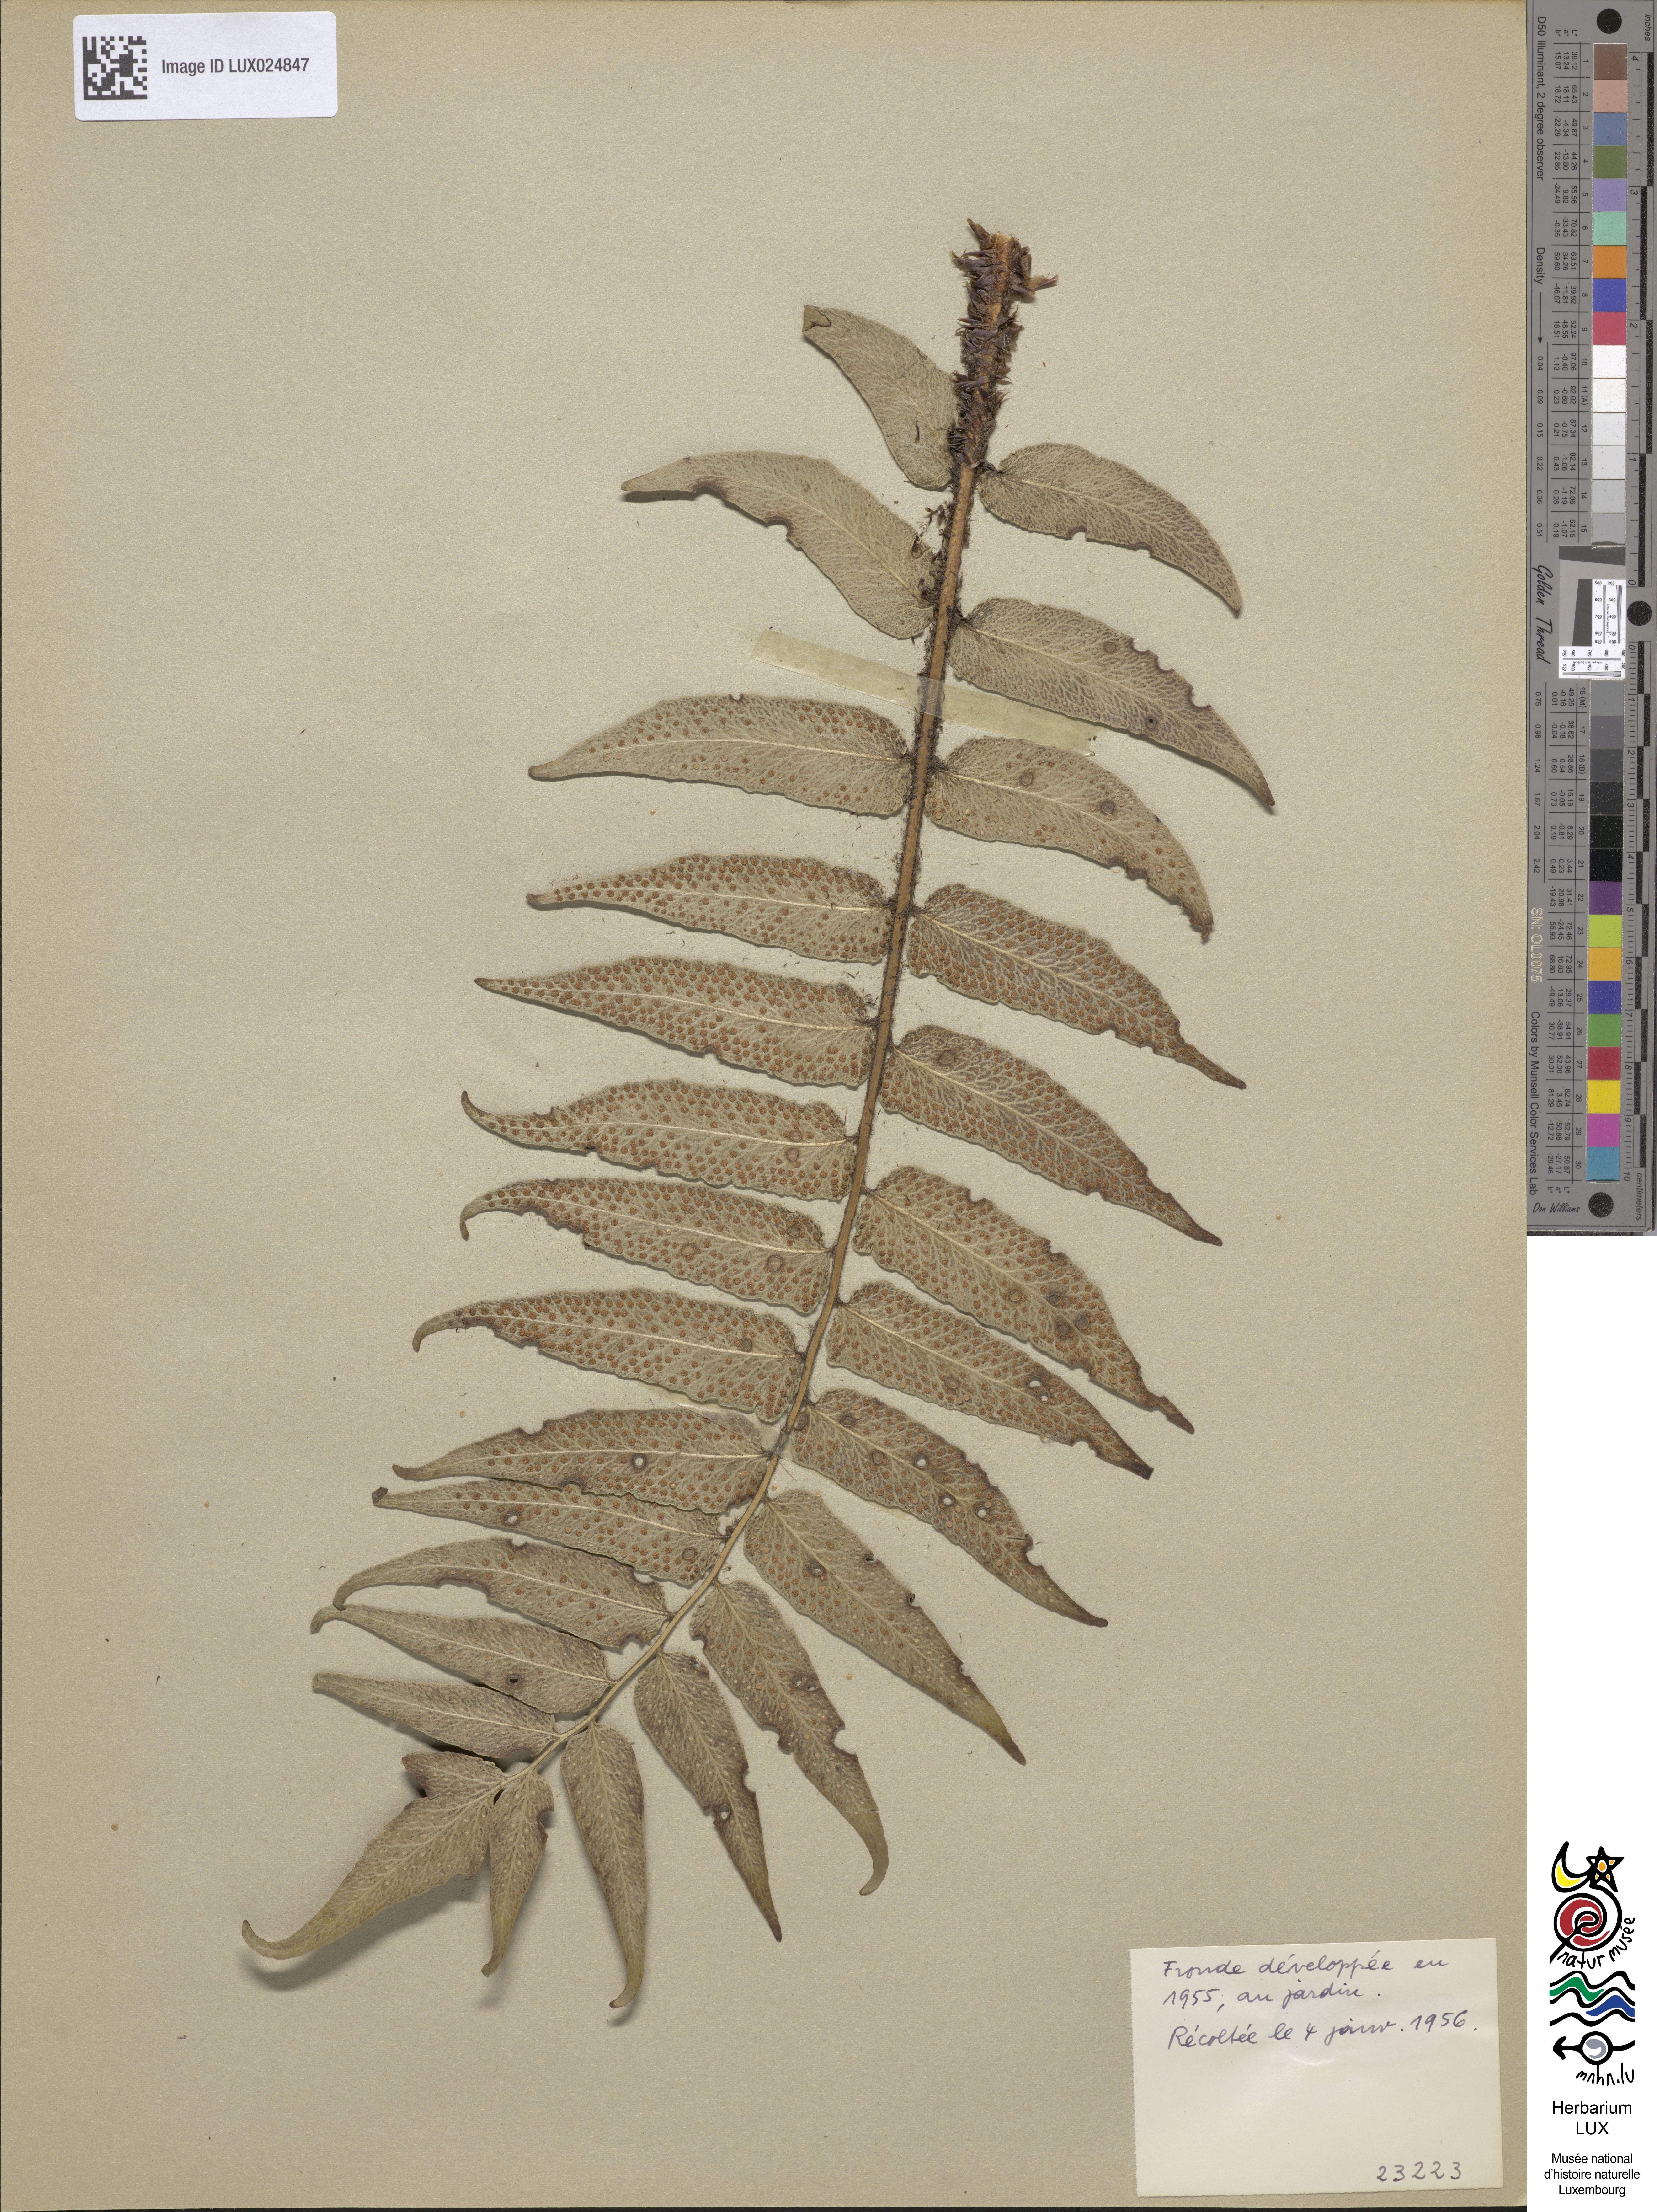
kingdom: Plantae
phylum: Tracheophyta
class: Polypodiopsida
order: Polypodiales
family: Dryopteridaceae
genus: Cyrtomium
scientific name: Cyrtomium falcatum
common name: House holly-fern
